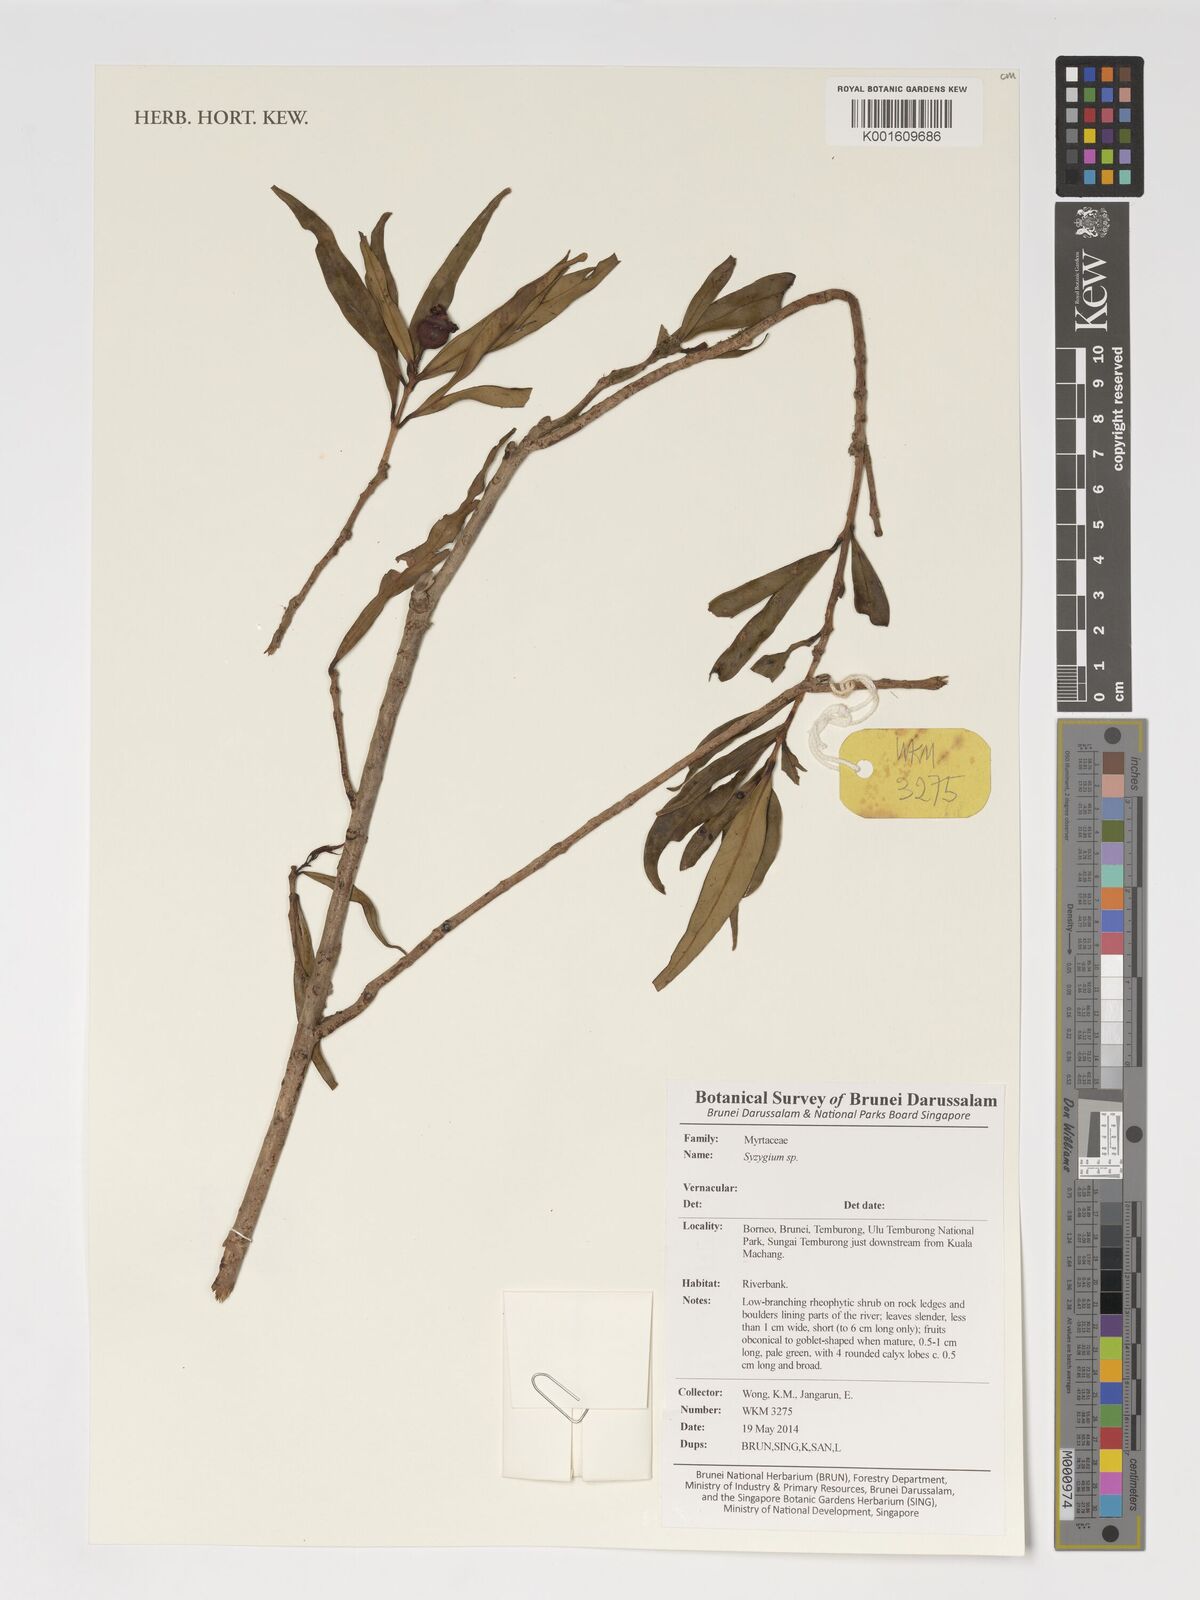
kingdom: Plantae
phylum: Tracheophyta
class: Magnoliopsida
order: Myrtales
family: Myrtaceae
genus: Syzygium
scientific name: Syzygium
